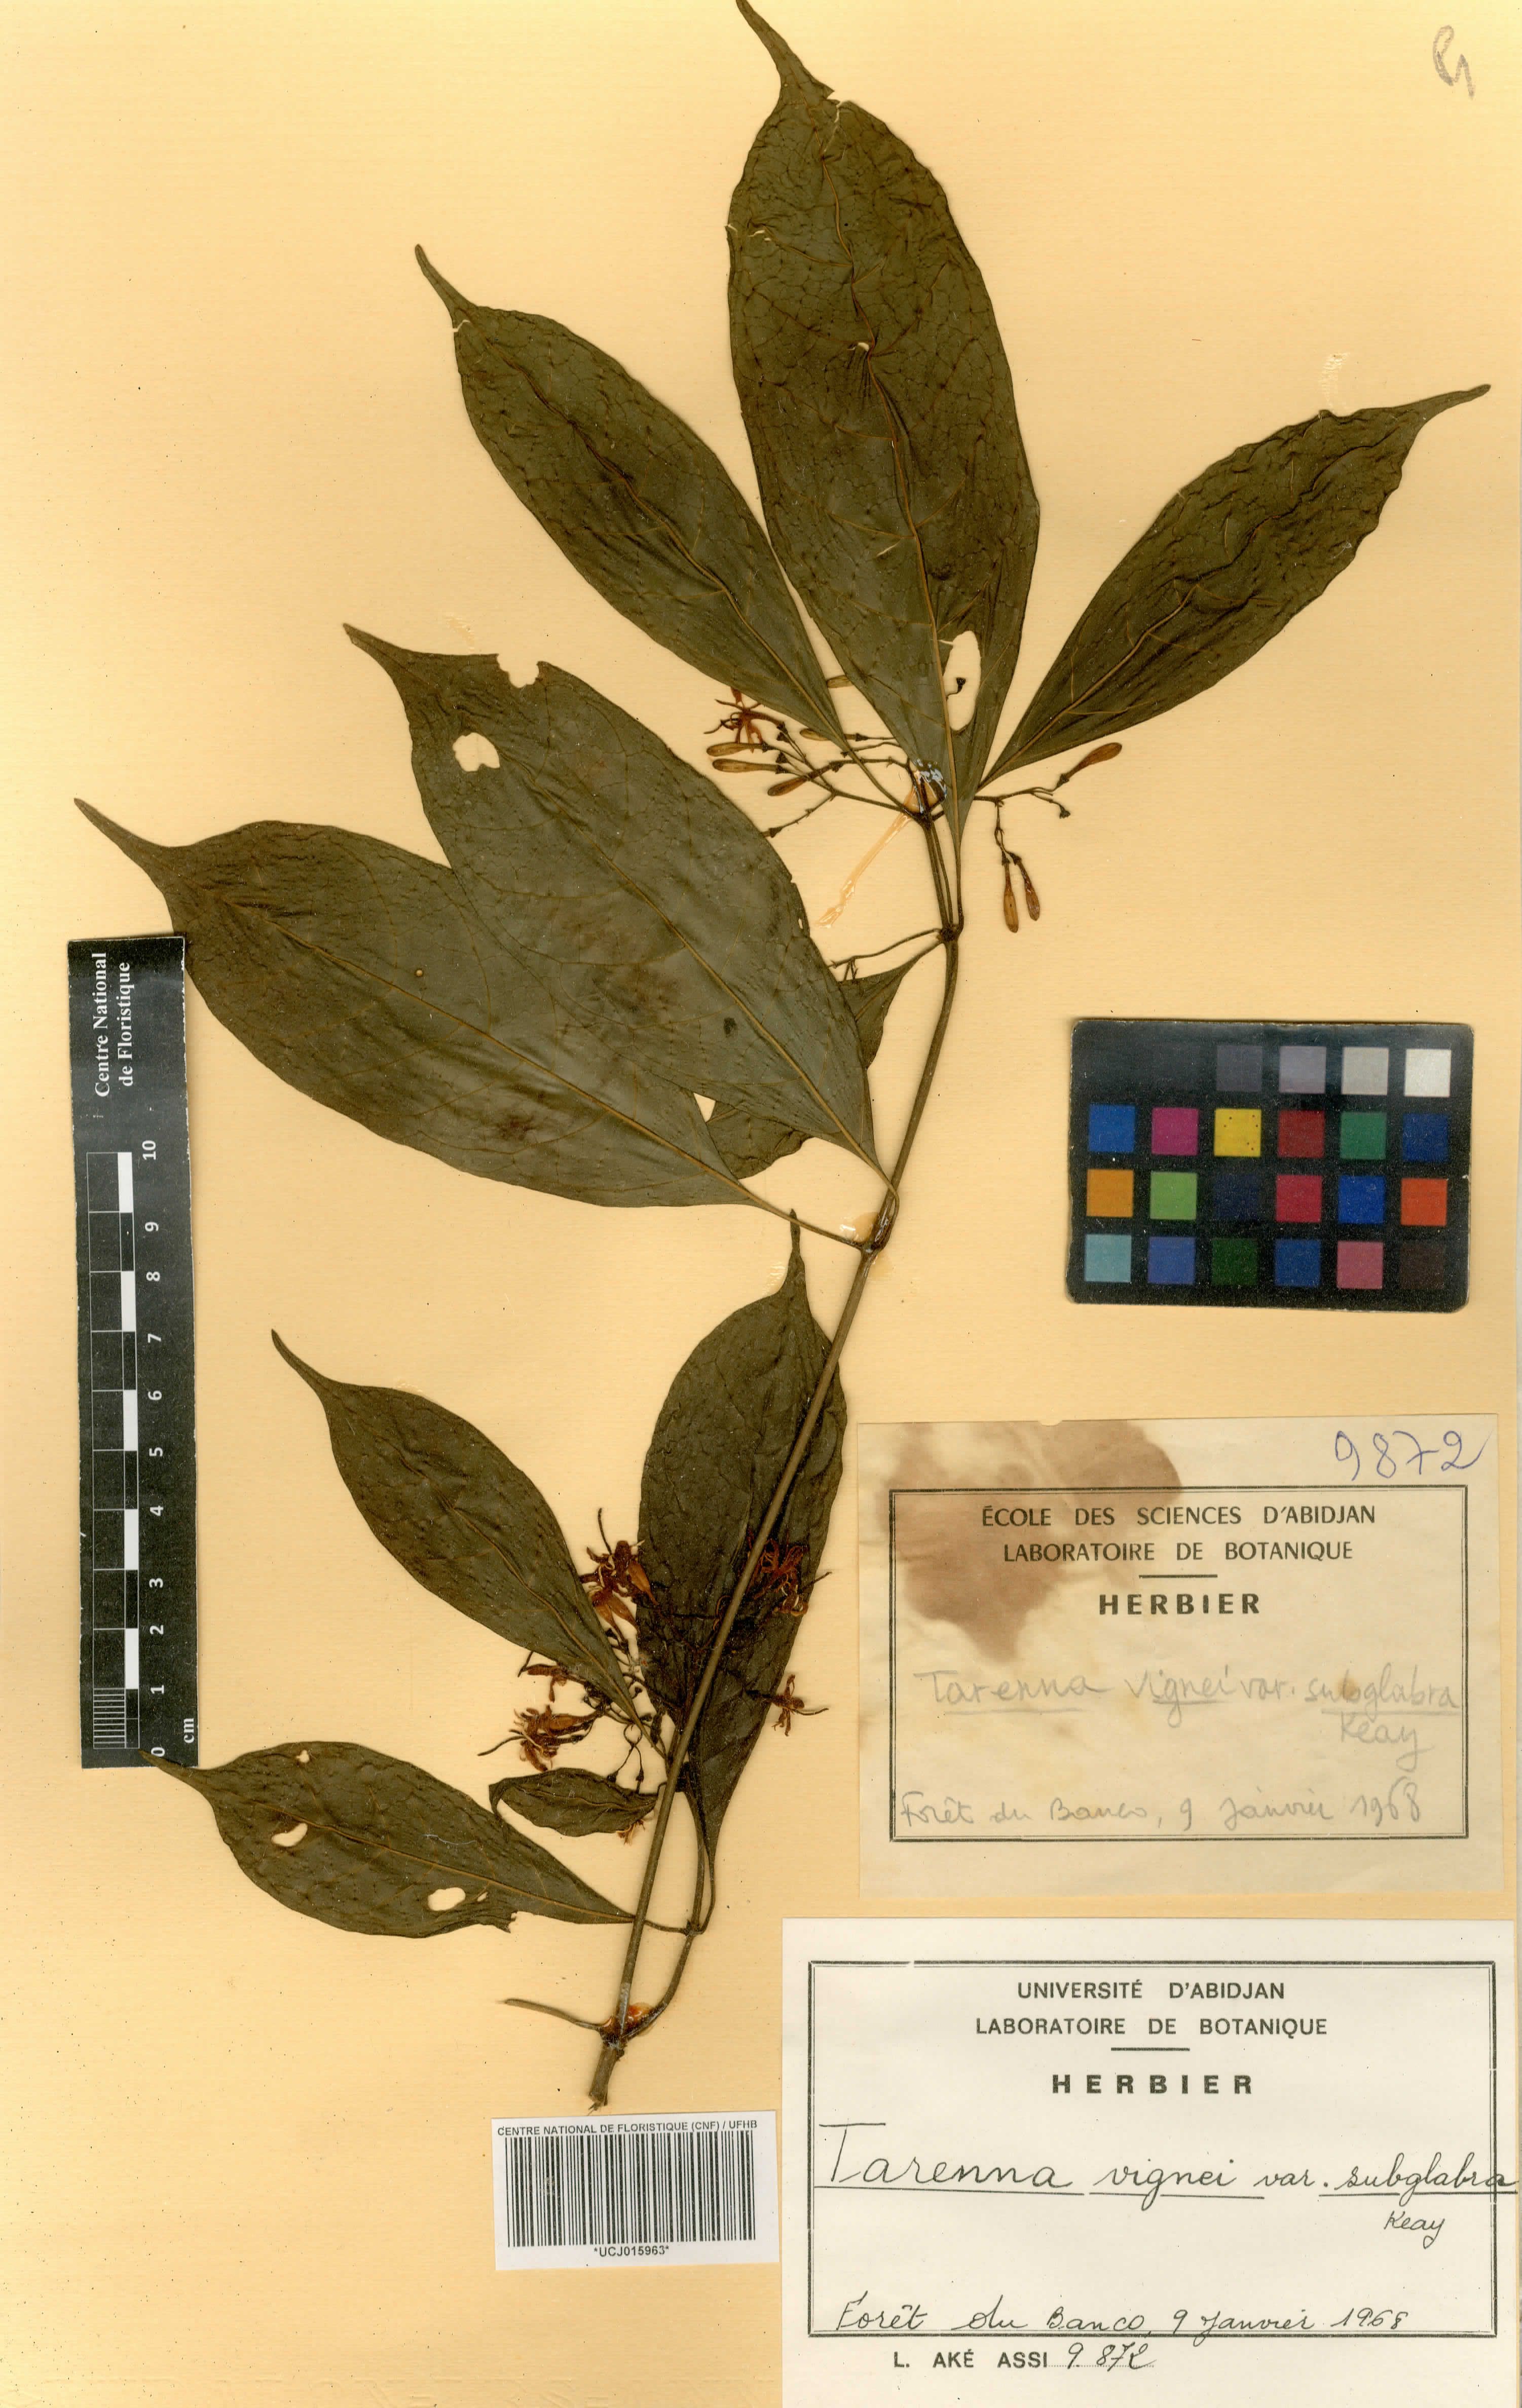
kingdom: Plantae
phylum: Tracheophyta
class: Magnoliopsida
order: Gentianales
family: Rubiaceae
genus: Tarenna
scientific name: Tarenna vignei
